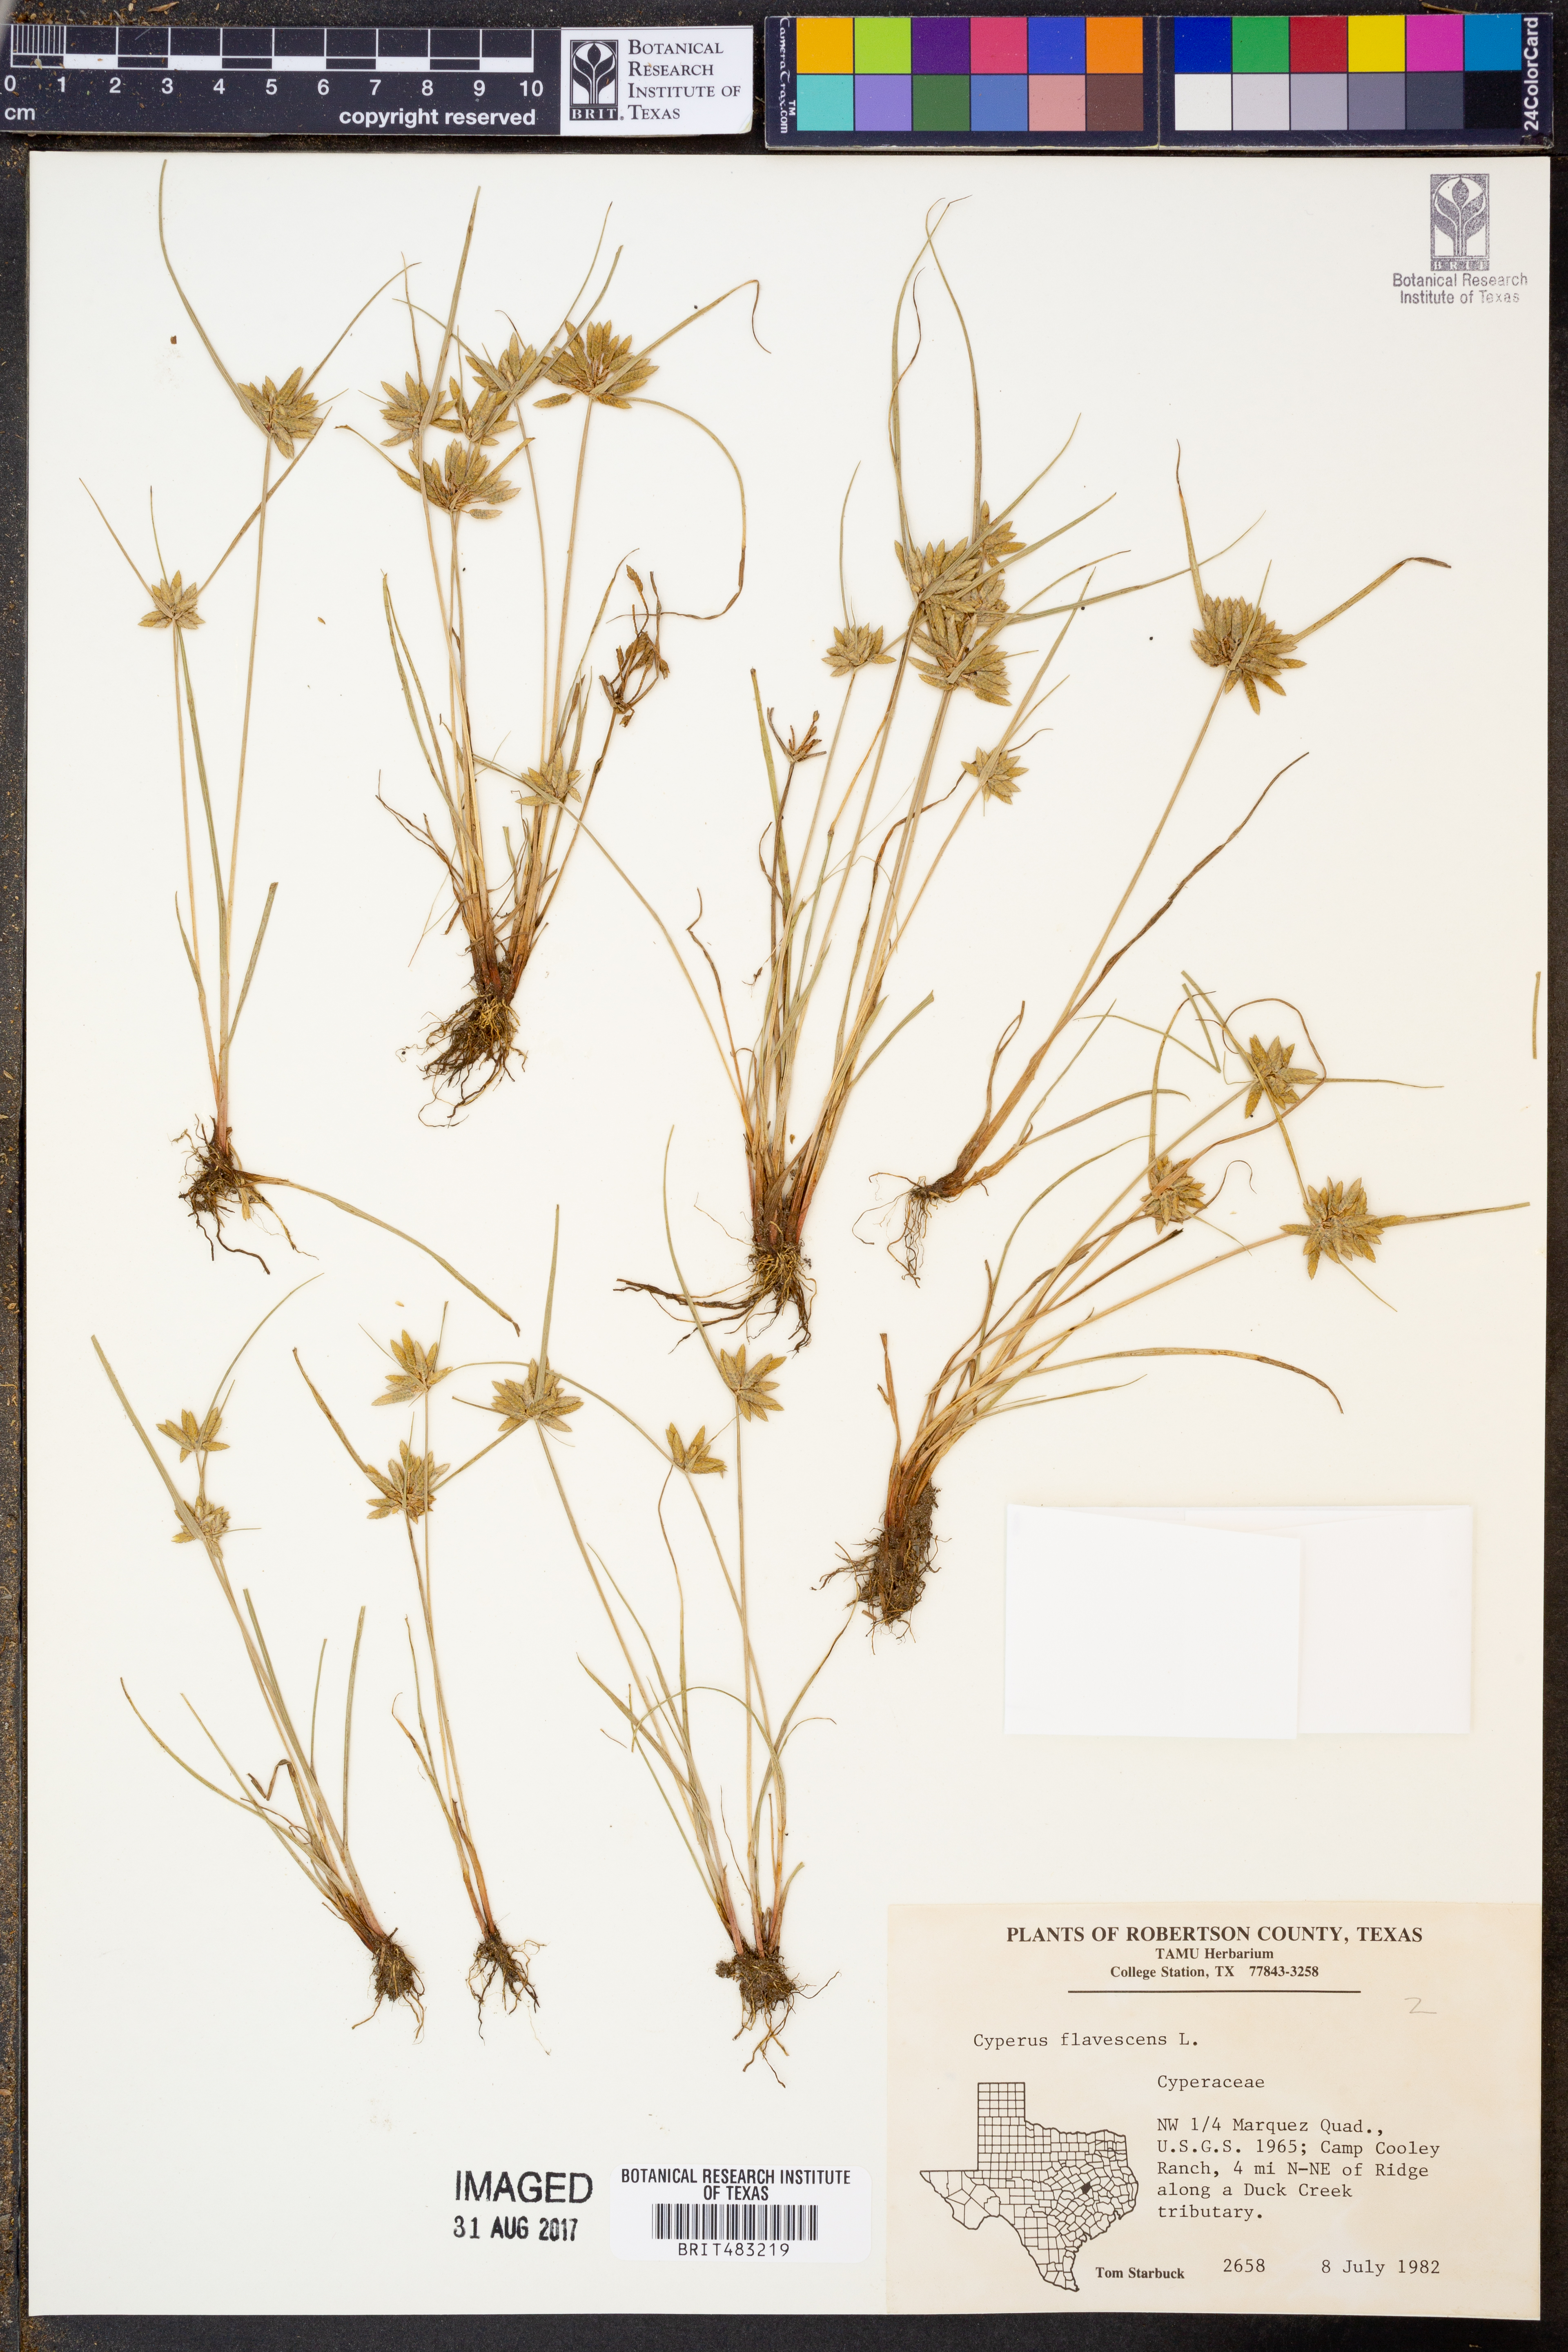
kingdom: Plantae
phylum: Tracheophyta
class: Liliopsida
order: Poales
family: Cyperaceae
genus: Cyperus
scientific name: Cyperus flavescens
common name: Yellow galingale
